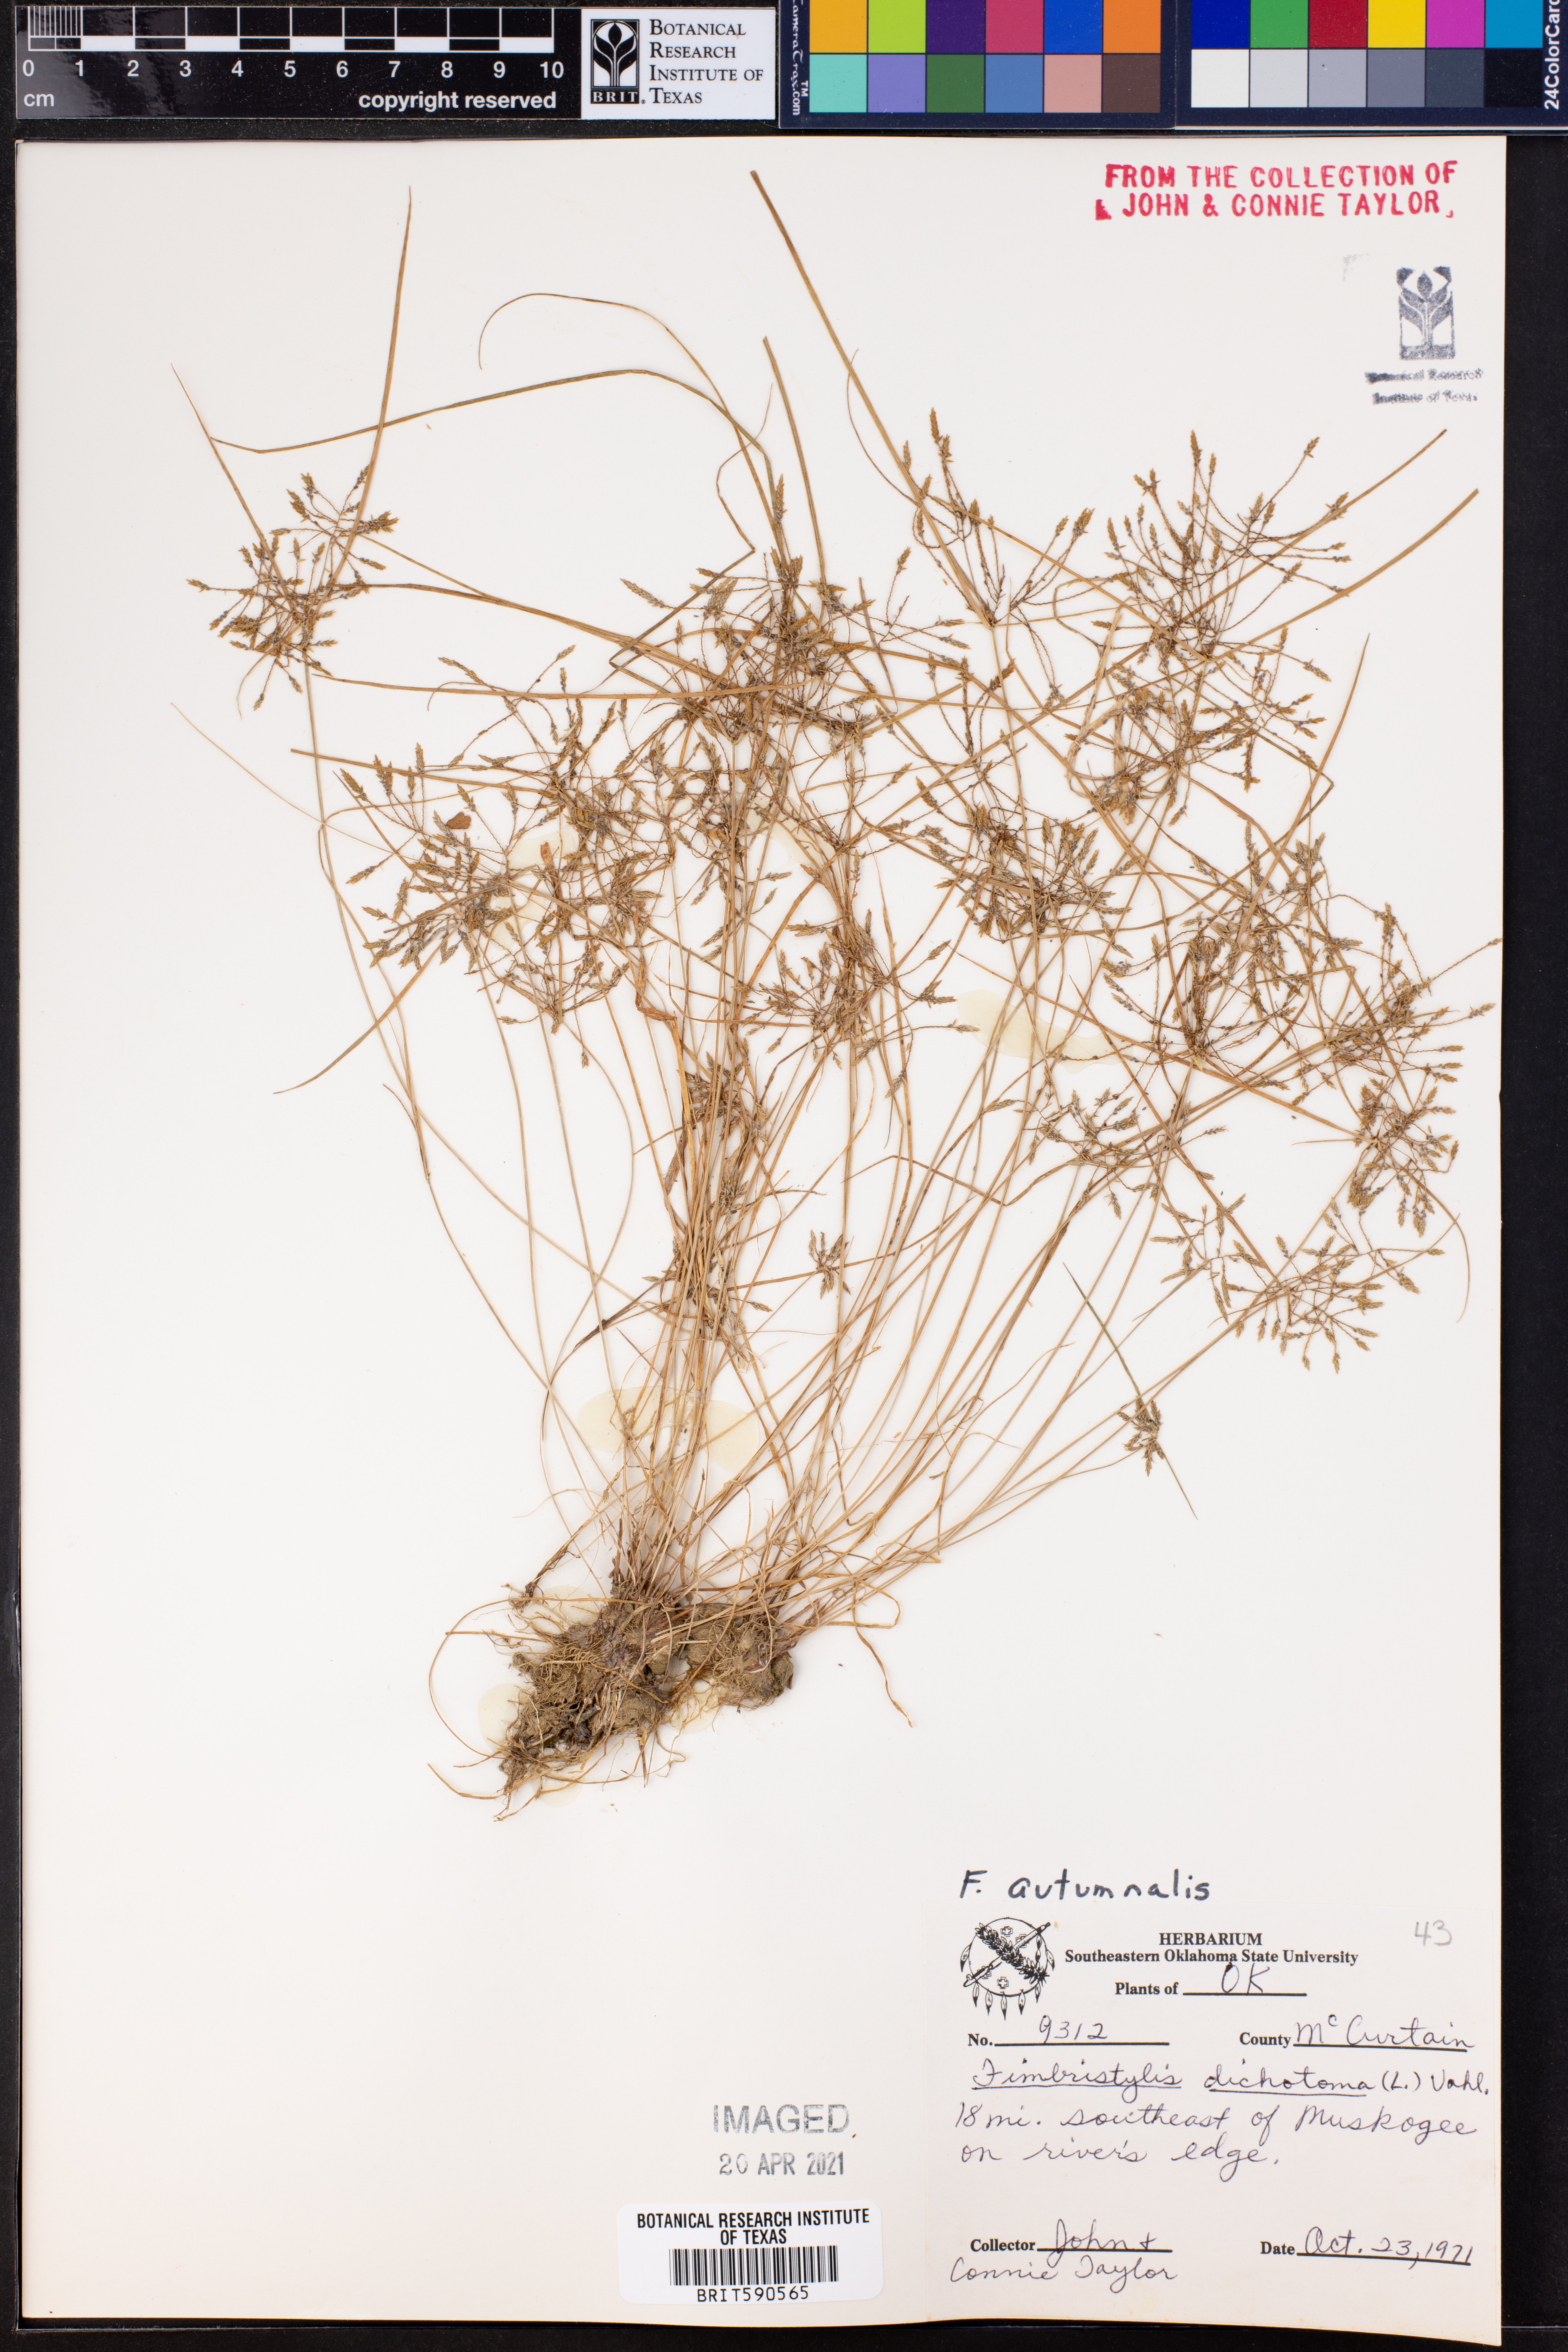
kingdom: Plantae
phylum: Tracheophyta
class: Liliopsida
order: Poales
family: Cyperaceae
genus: Fimbristylis
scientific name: Fimbristylis autumnalis
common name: Slender fimbristylis
